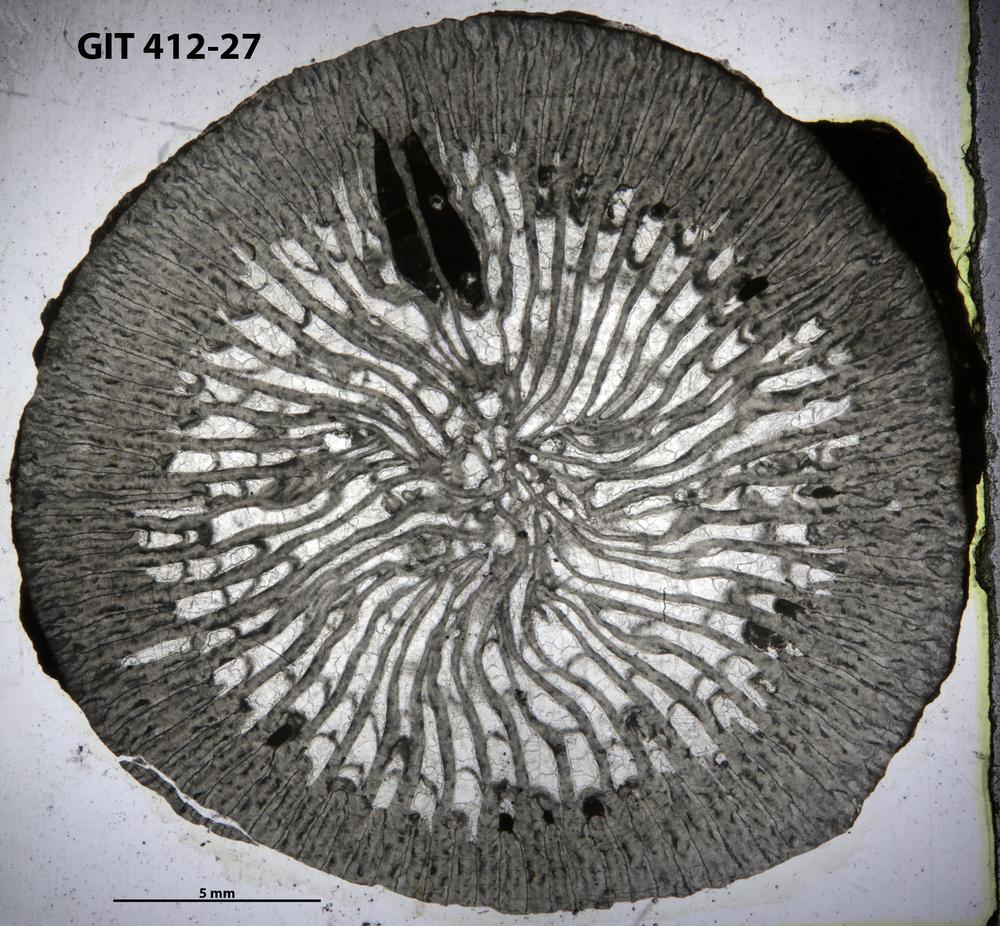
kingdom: Animalia
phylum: Cnidaria
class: Anthozoa
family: Streptelasmatidae
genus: Rhegmaphyllum
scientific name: Rhegmaphyllum
